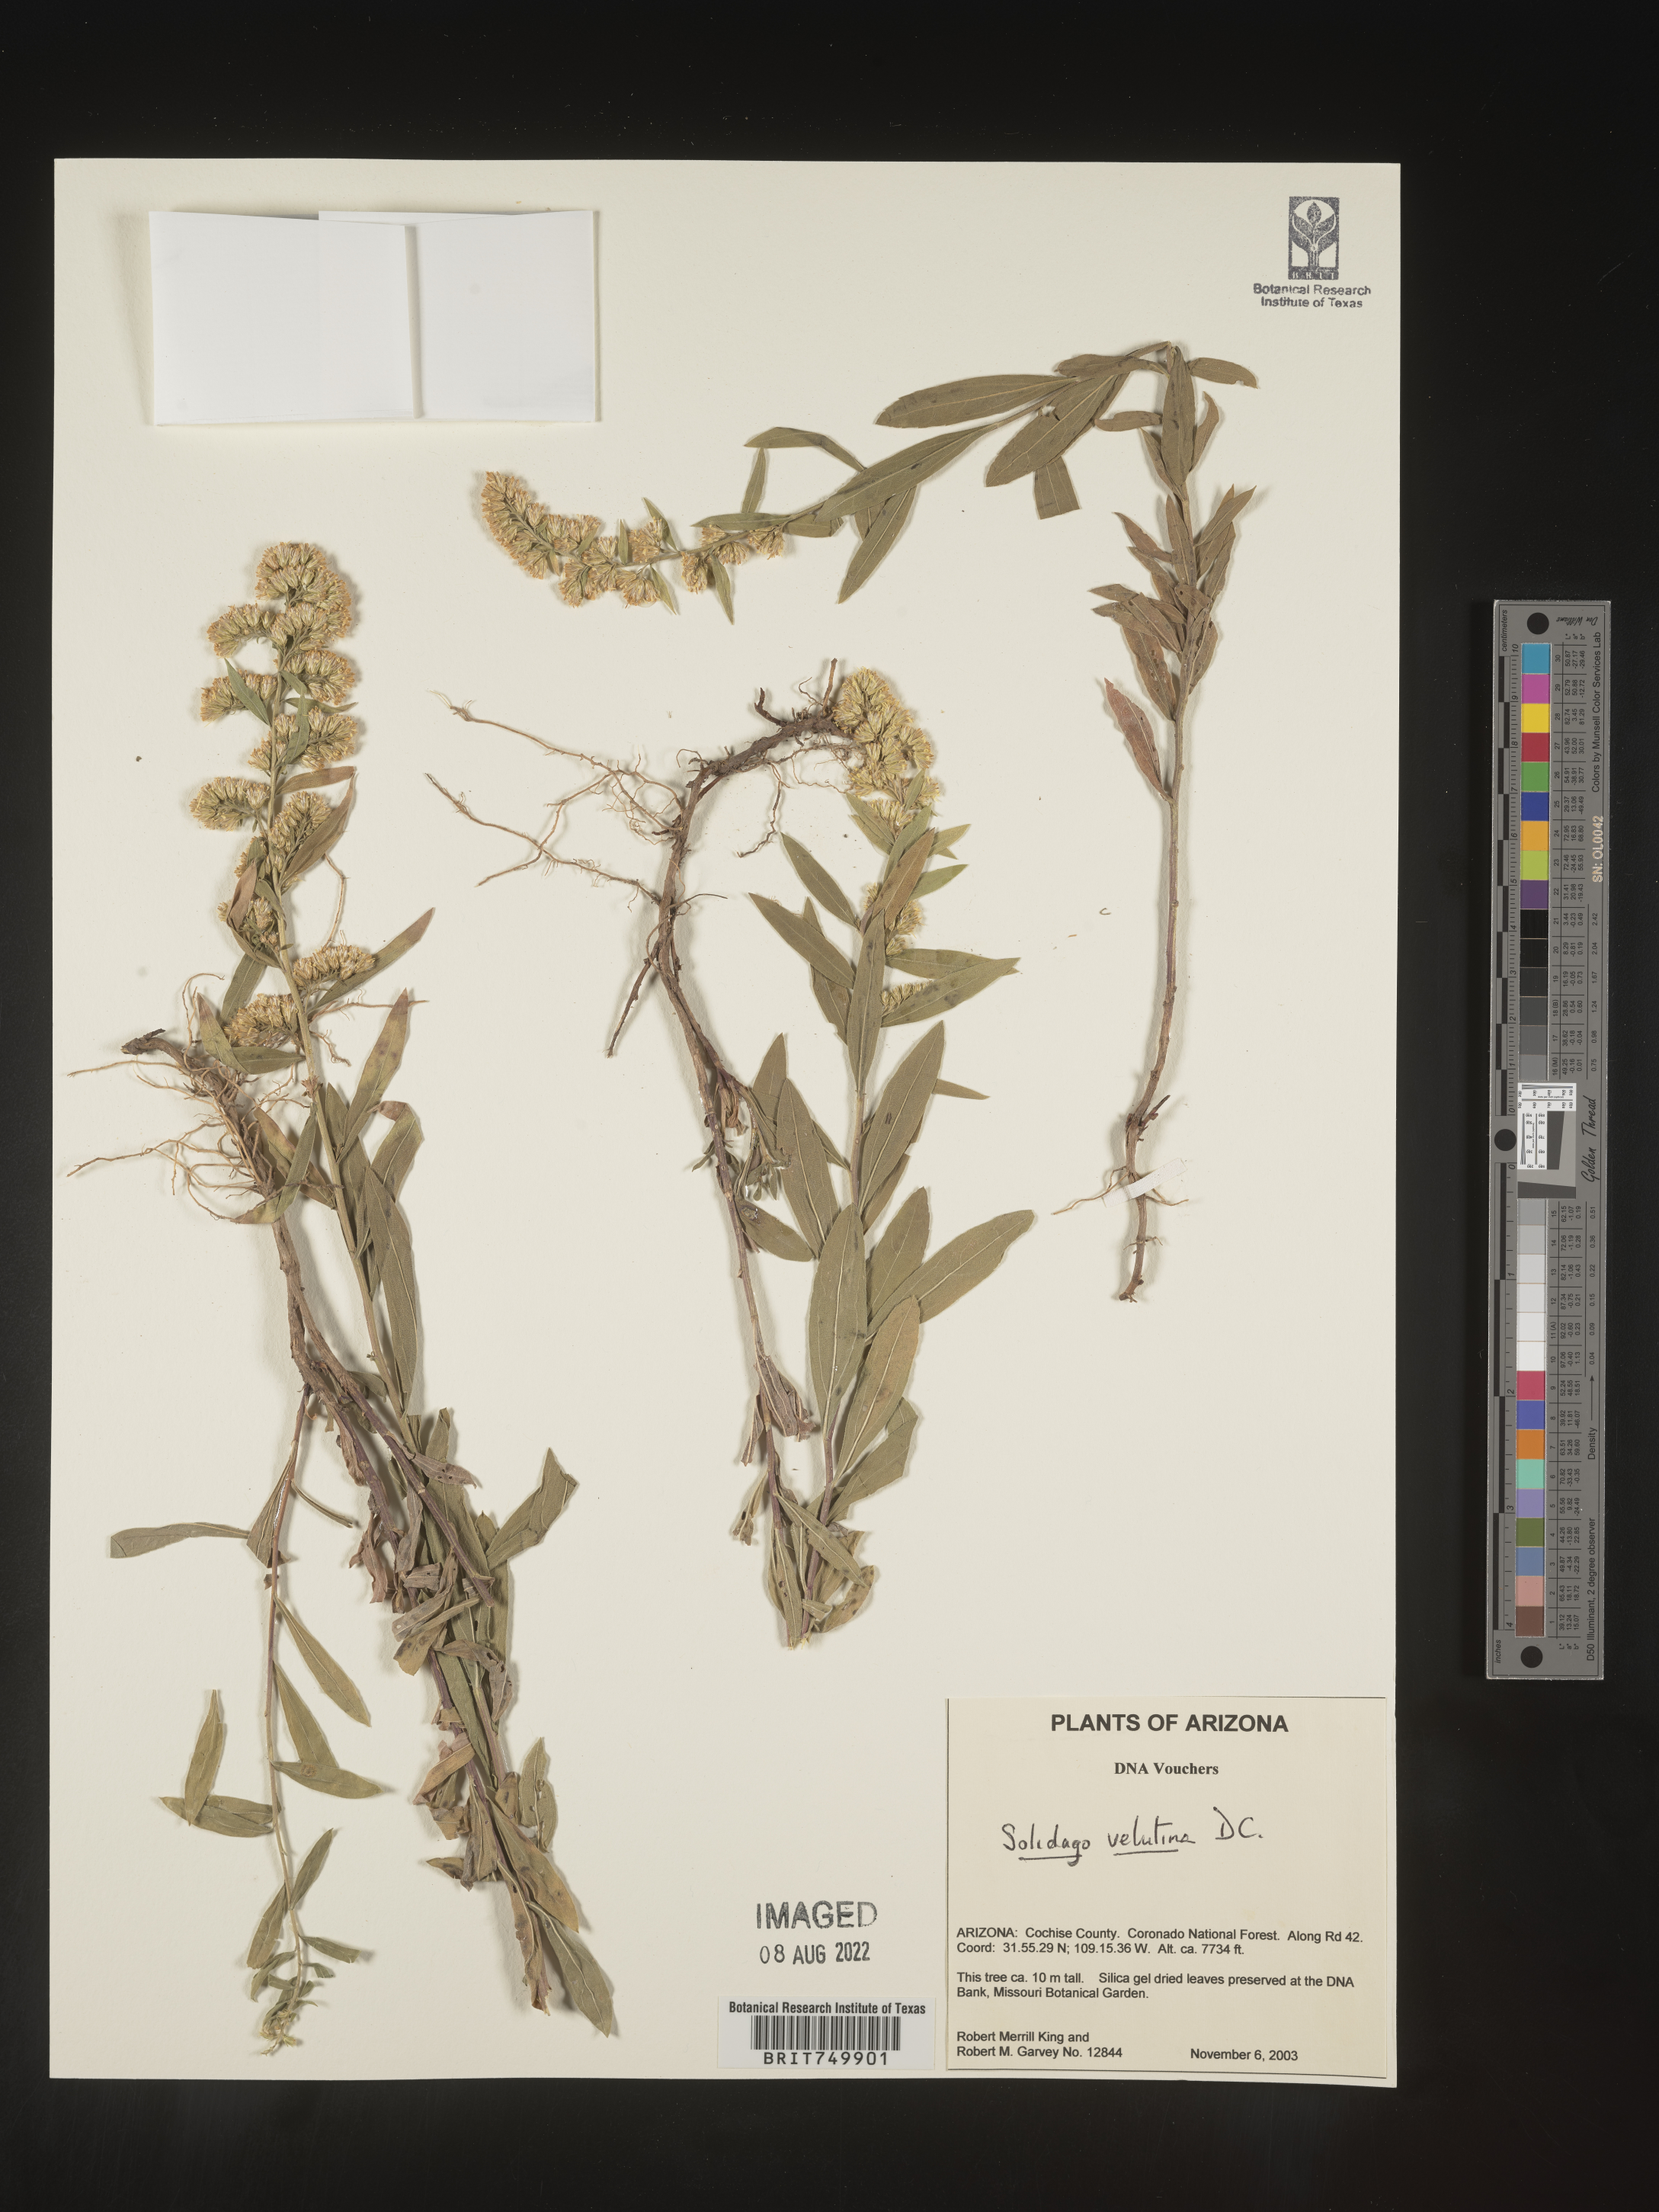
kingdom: Plantae
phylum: Tracheophyta
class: Magnoliopsida
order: Asterales
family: Asteraceae
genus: Solidago
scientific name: Solidago velutina
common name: Three-nerve goldenrod
